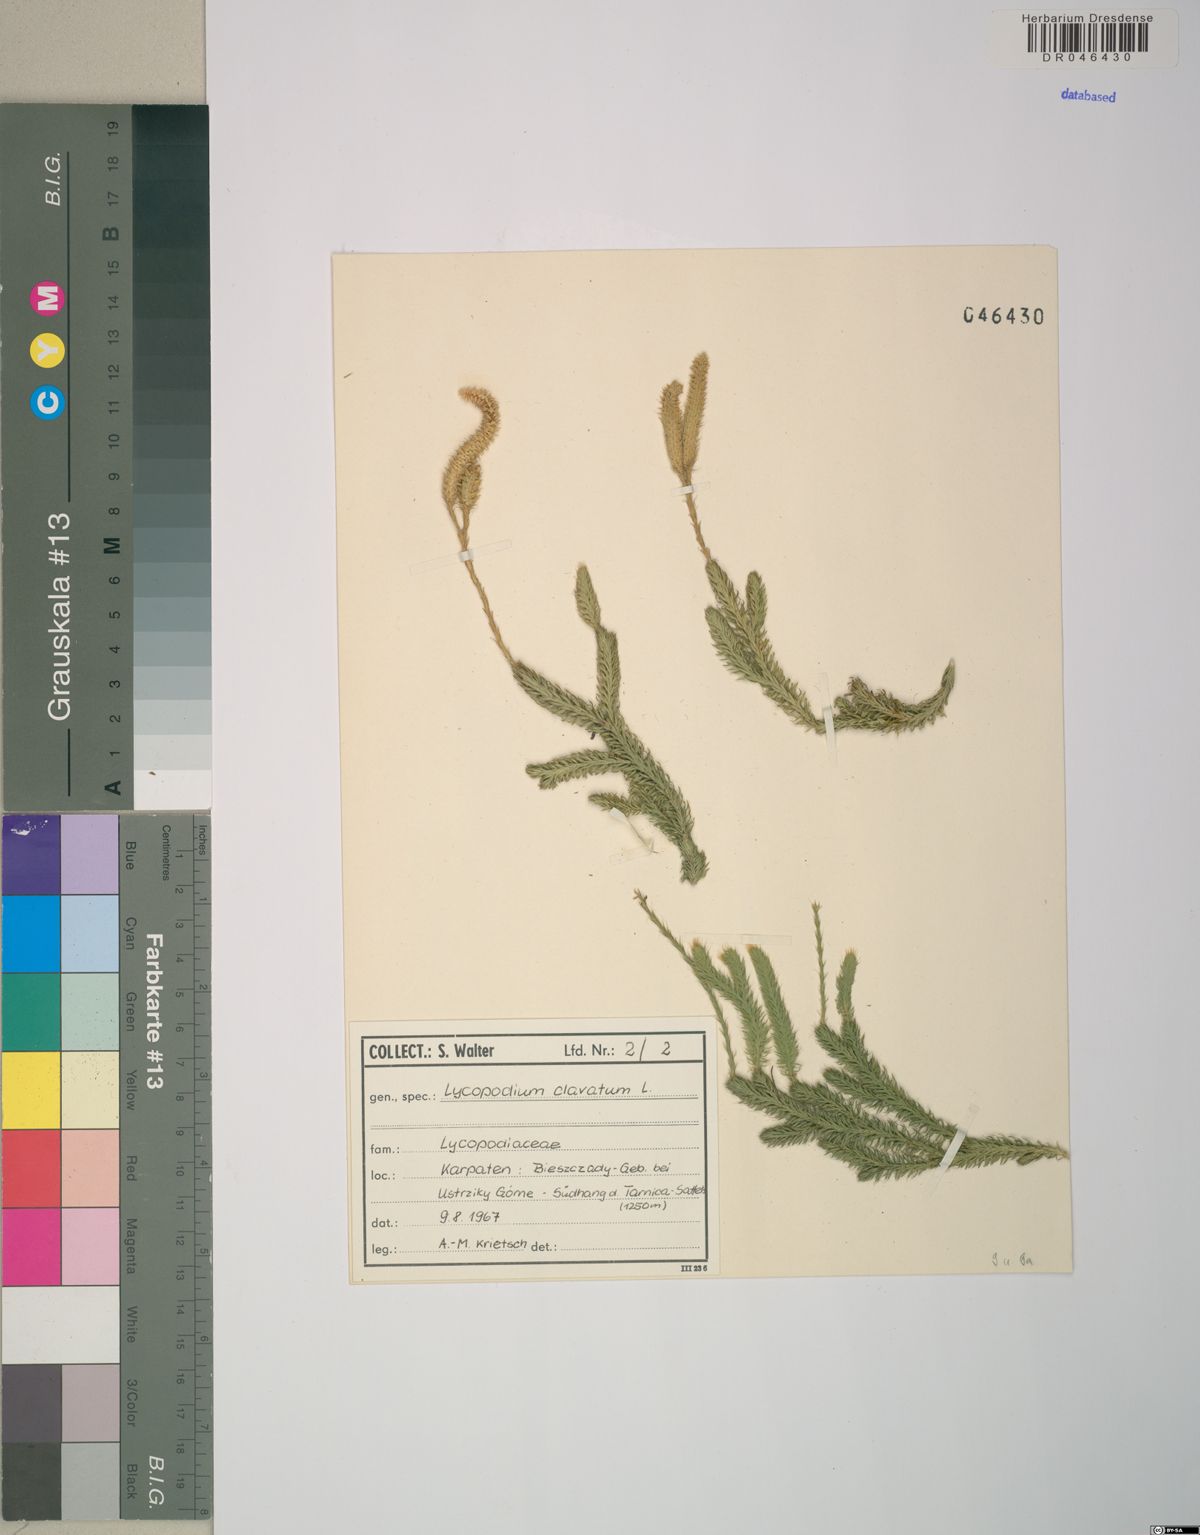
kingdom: Plantae
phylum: Tracheophyta
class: Lycopodiopsida
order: Lycopodiales
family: Lycopodiaceae
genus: Lycopodium
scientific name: Lycopodium clavatum
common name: Stag's-horn clubmoss
